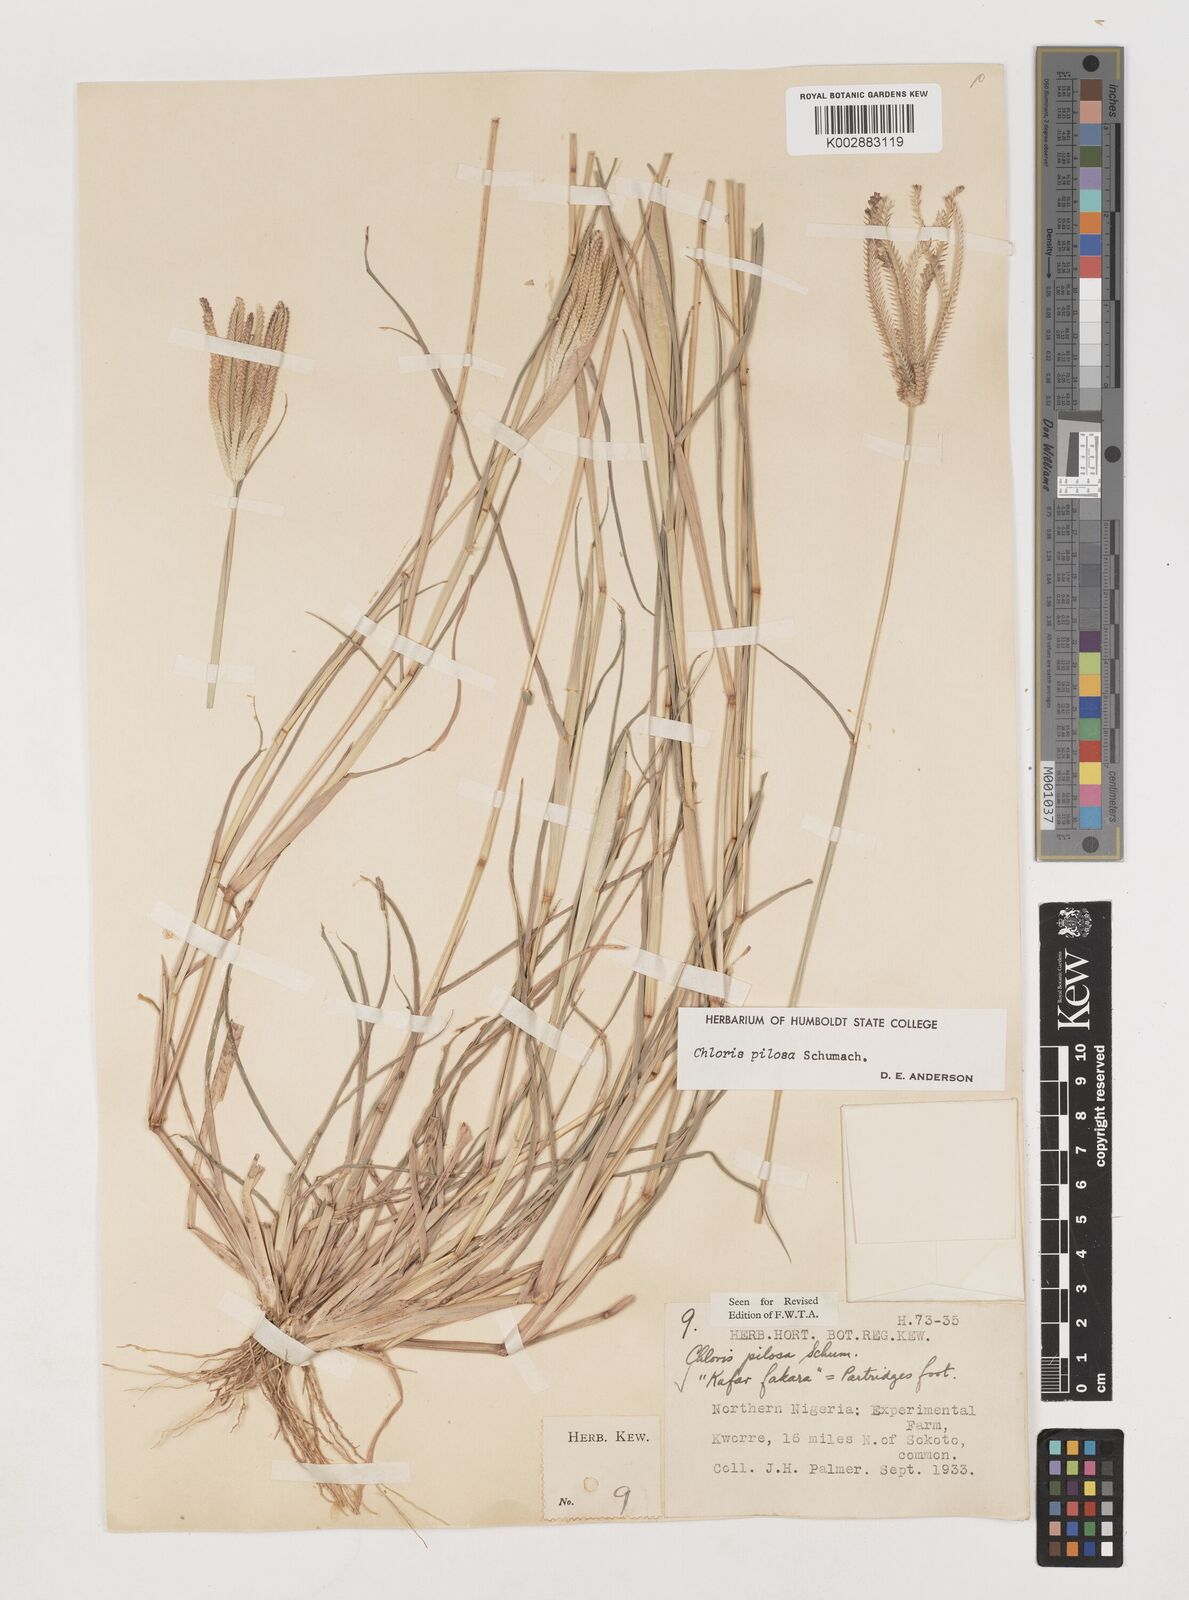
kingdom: Plantae
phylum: Tracheophyta
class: Liliopsida
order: Poales
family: Poaceae
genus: Chloris
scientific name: Chloris pilosa
